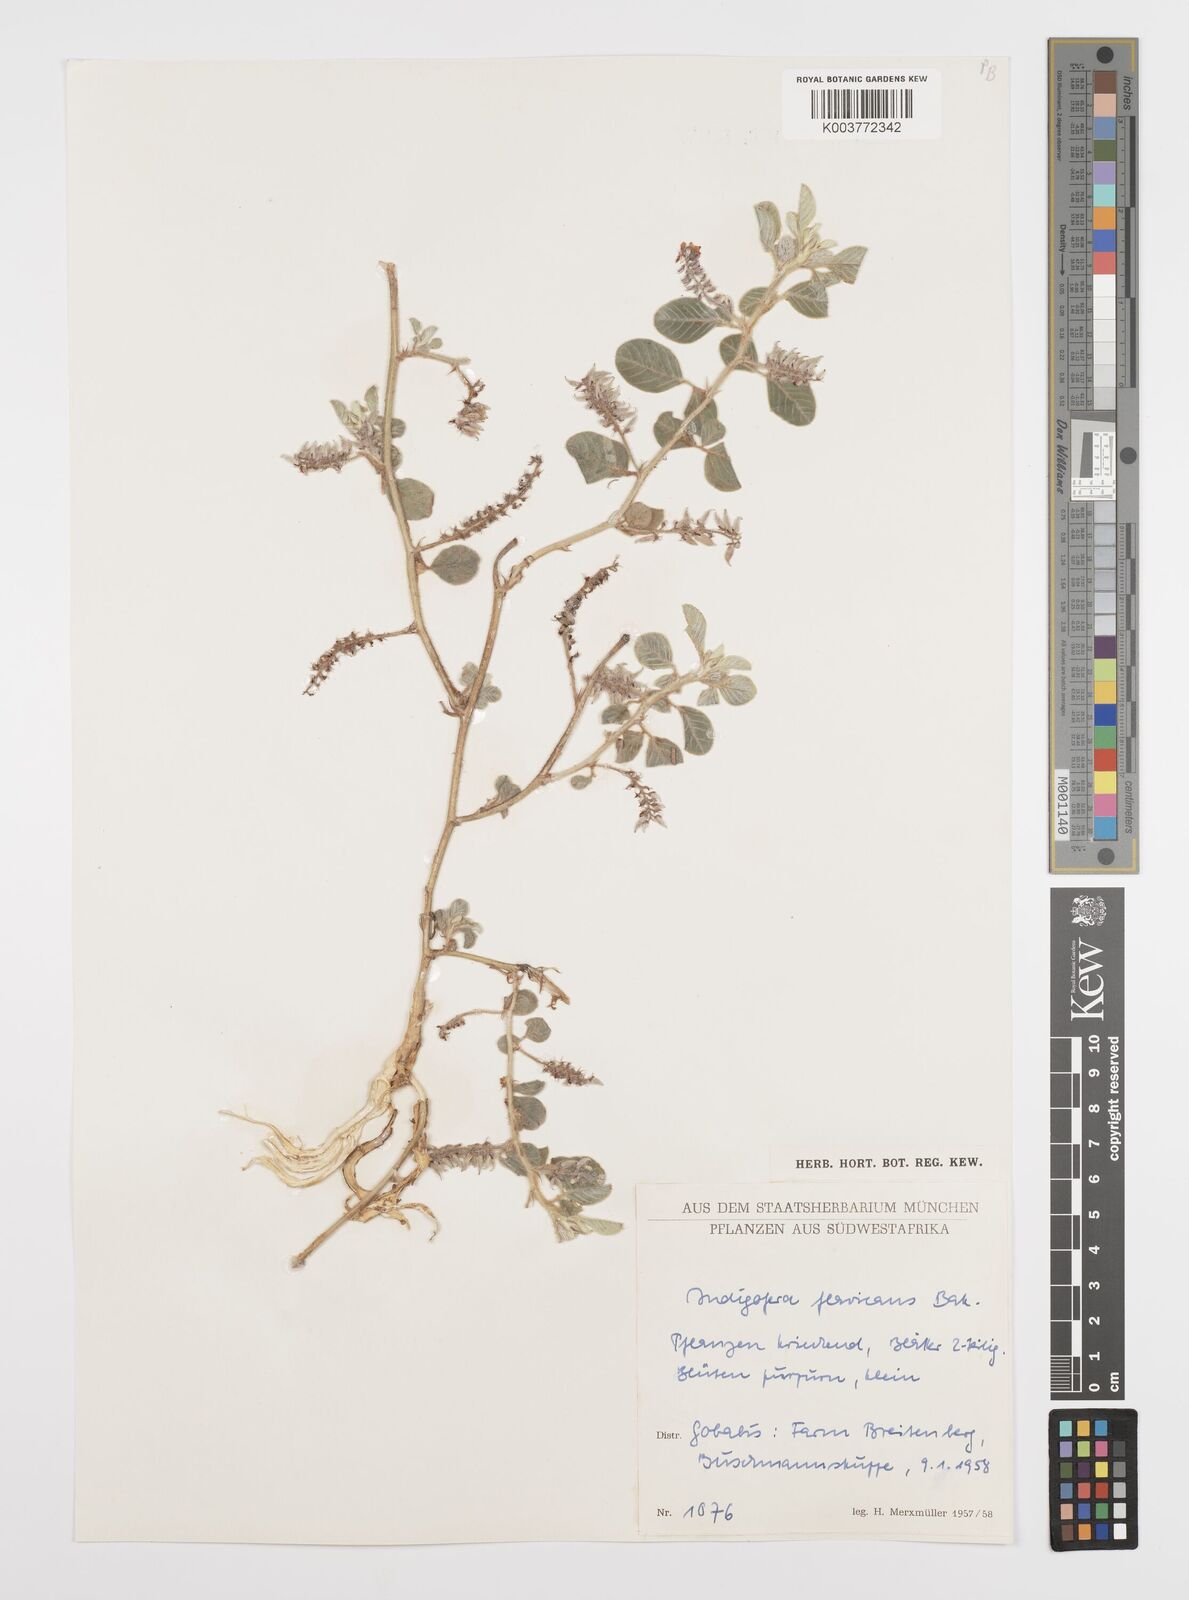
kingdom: Plantae
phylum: Tracheophyta
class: Magnoliopsida
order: Fabales
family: Fabaceae
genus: Indigofera
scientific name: Indigofera flavicans
